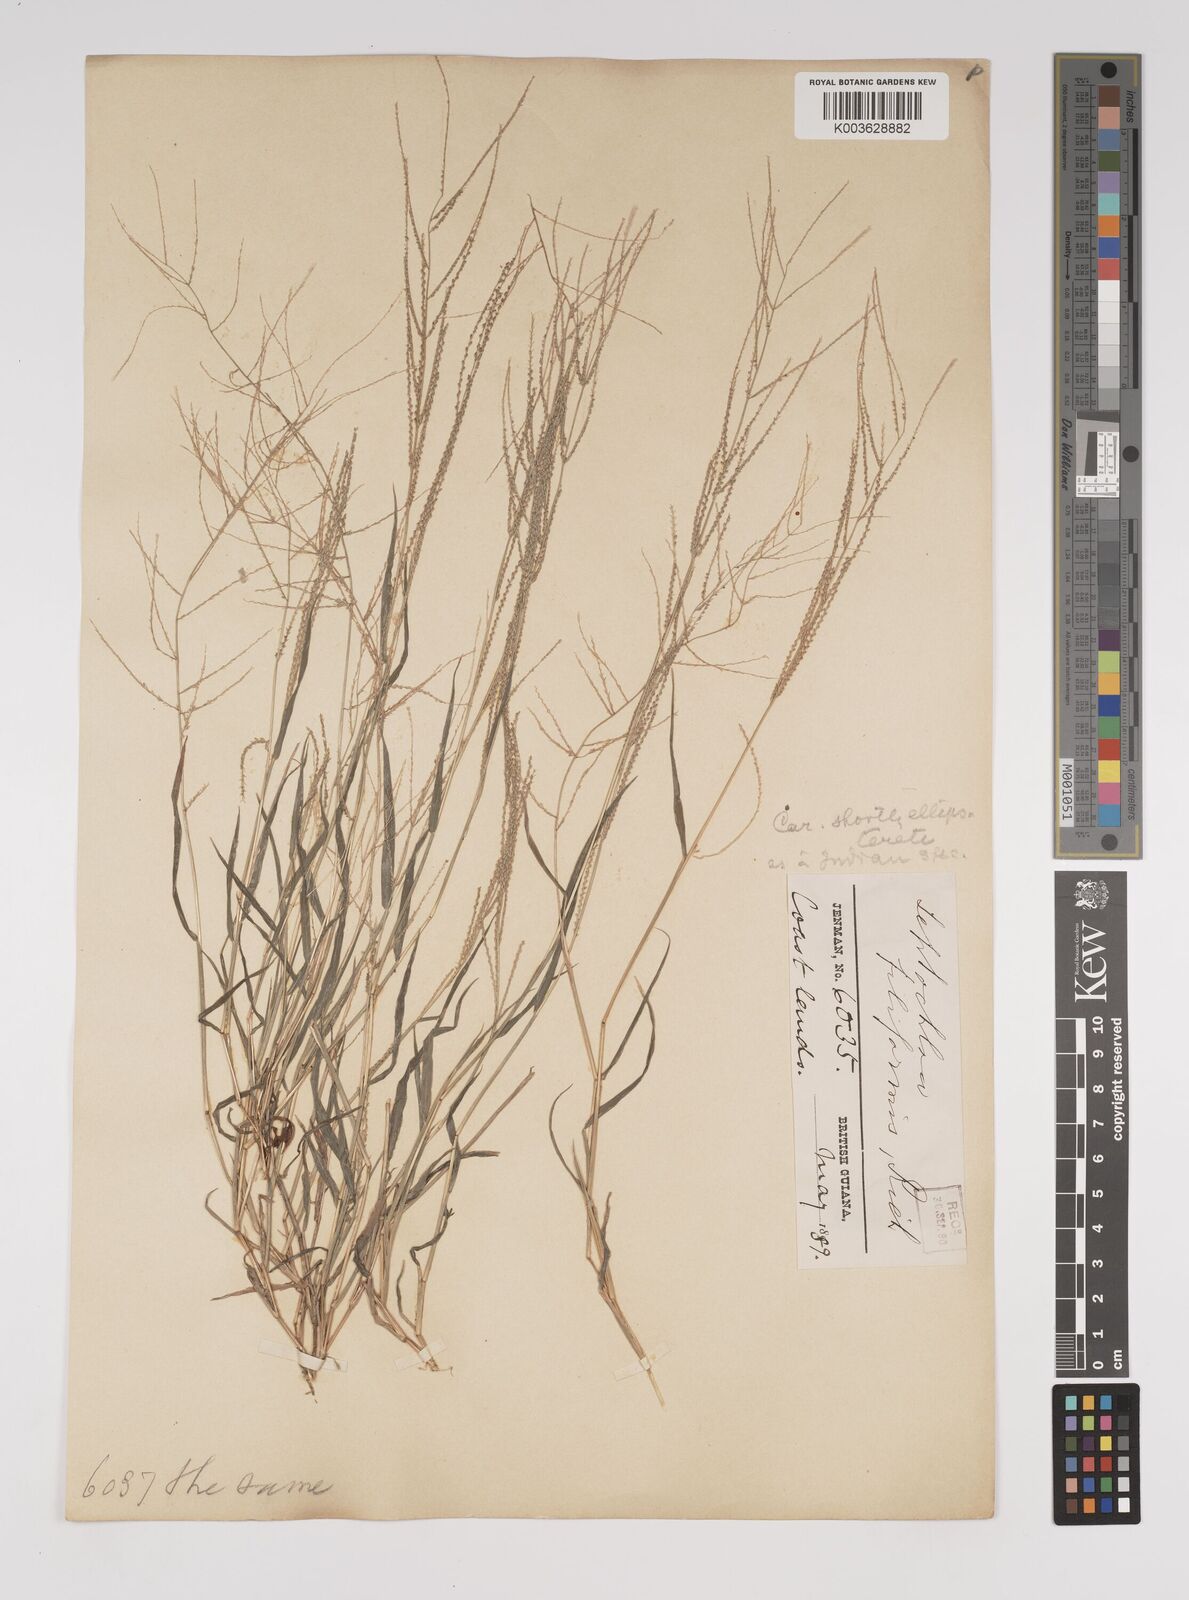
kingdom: Plantae
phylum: Tracheophyta
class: Liliopsida
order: Poales
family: Poaceae
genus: Leptochloa
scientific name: Leptochloa panicea
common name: Mucronate sprangletop
